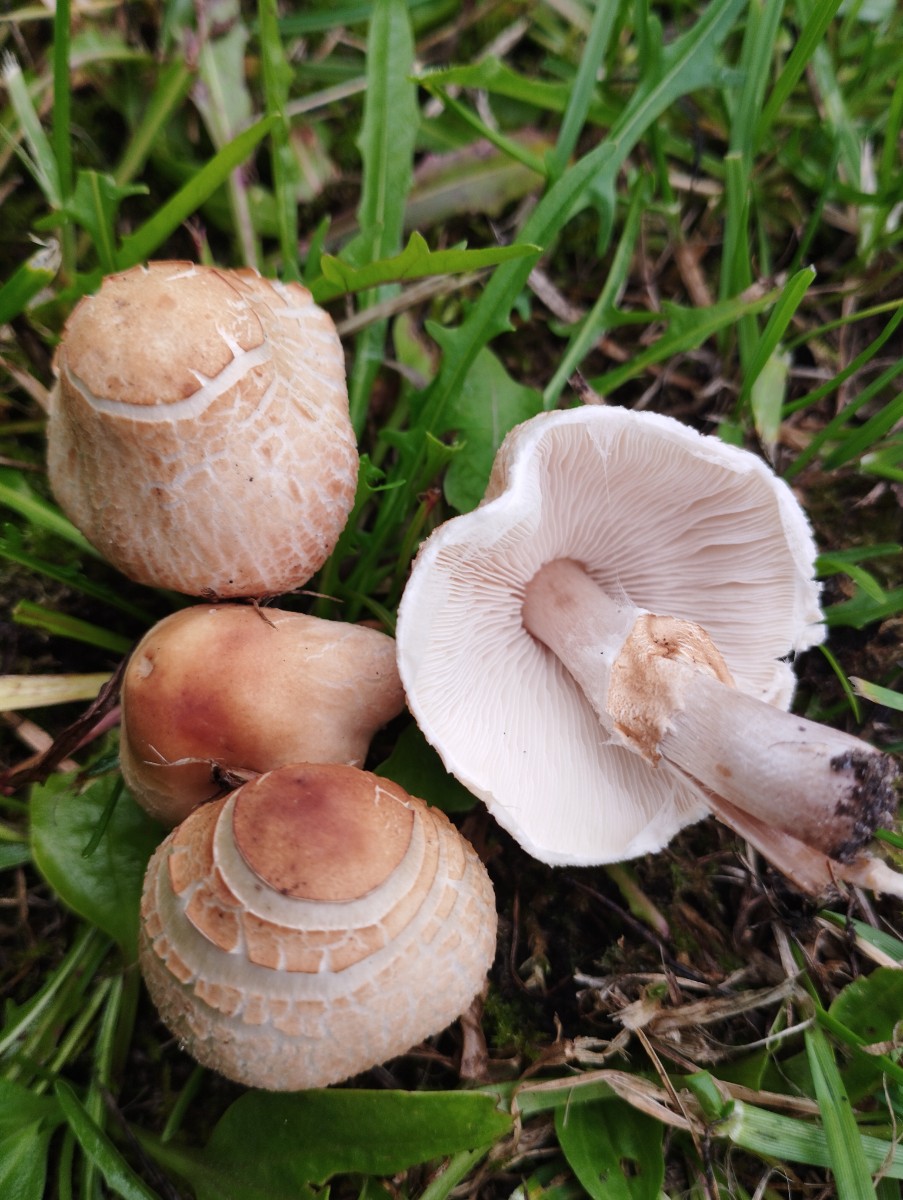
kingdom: Fungi
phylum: Basidiomycota
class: Agaricomycetes
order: Agaricales
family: Agaricaceae
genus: Lepiota
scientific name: Lepiota cristata
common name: stinkende parasolhat
